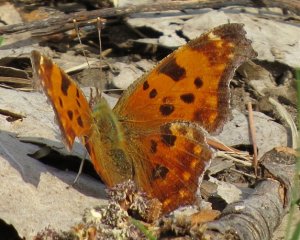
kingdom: Animalia
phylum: Arthropoda
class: Insecta
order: Lepidoptera
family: Nymphalidae
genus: Polygonia
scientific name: Polygonia comma
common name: Eastern Comma
